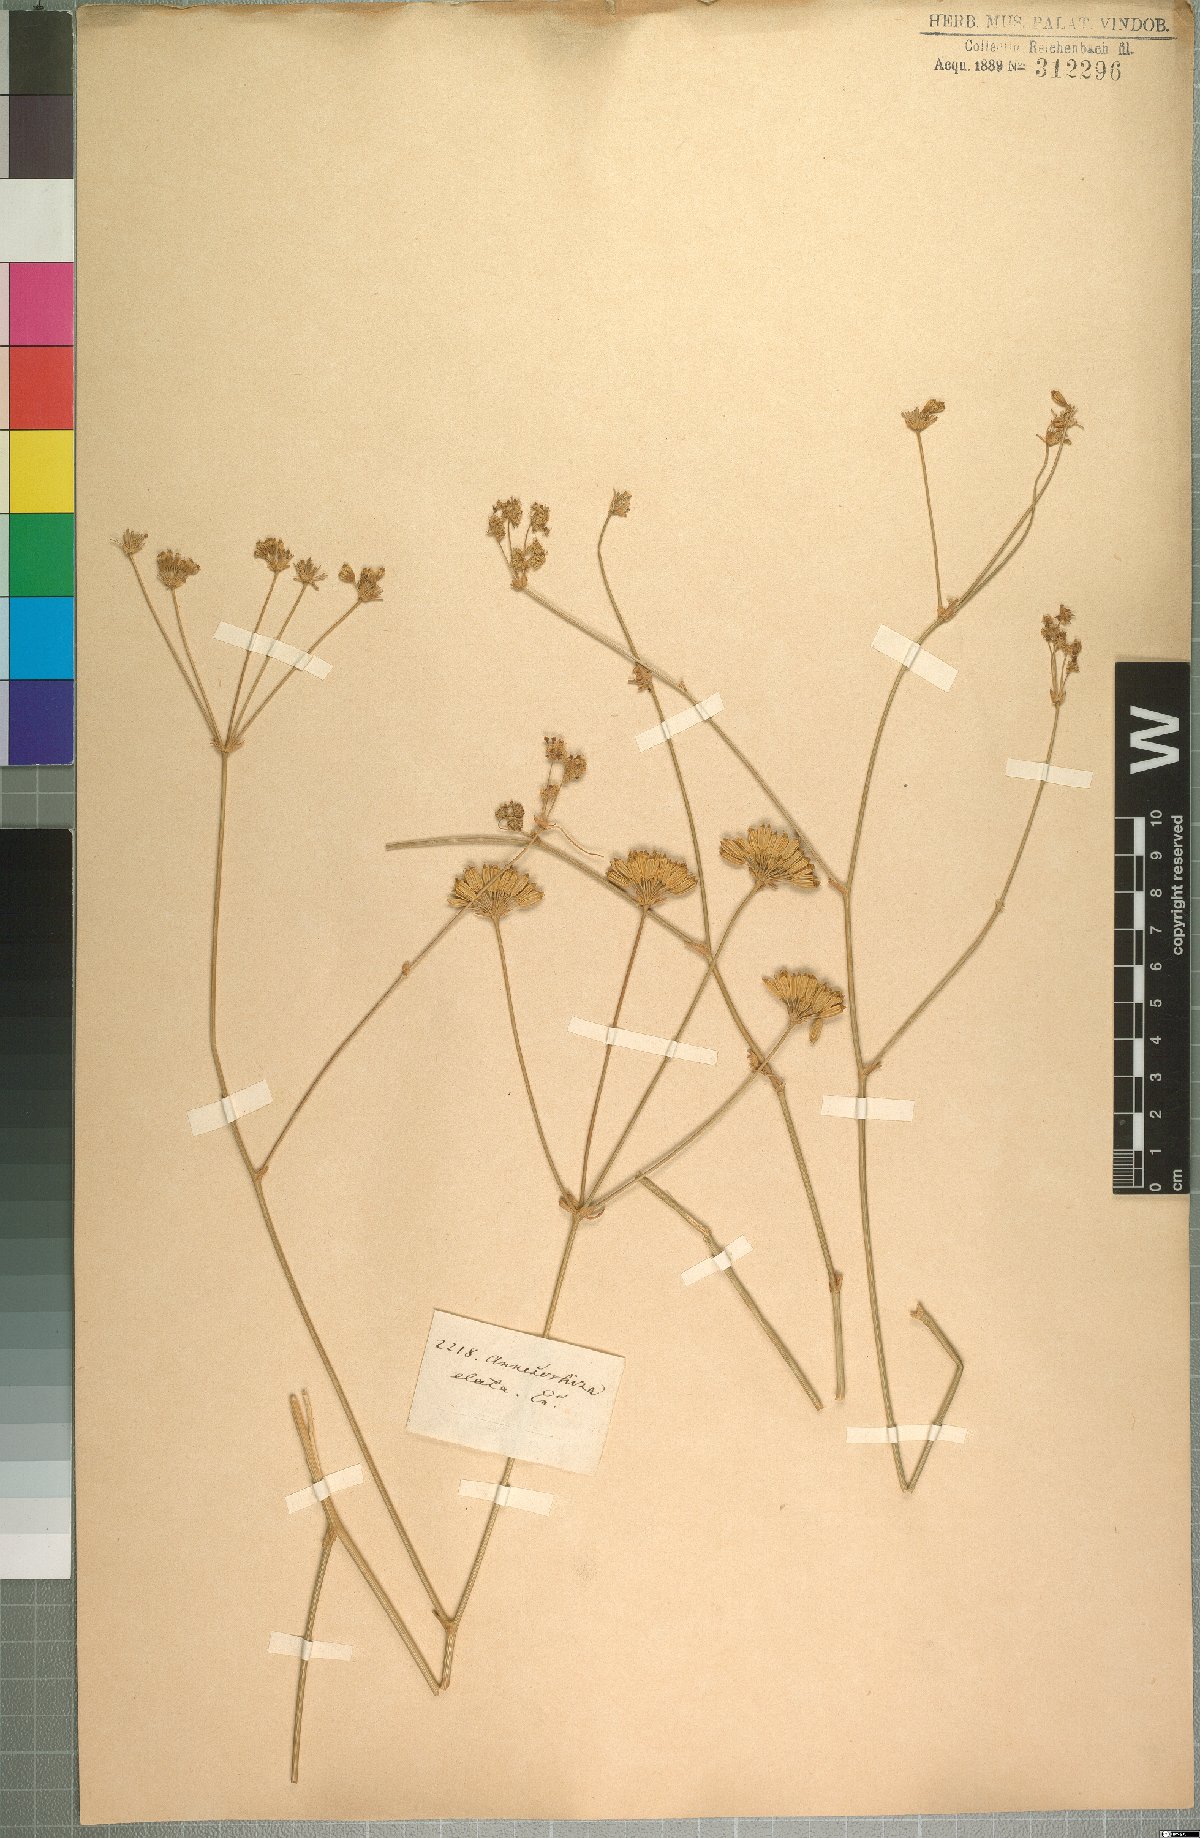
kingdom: Plantae
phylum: Tracheophyta
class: Magnoliopsida
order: Apiales
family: Apiaceae
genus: Annesorhiza
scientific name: Annesorhiza grandiflora
